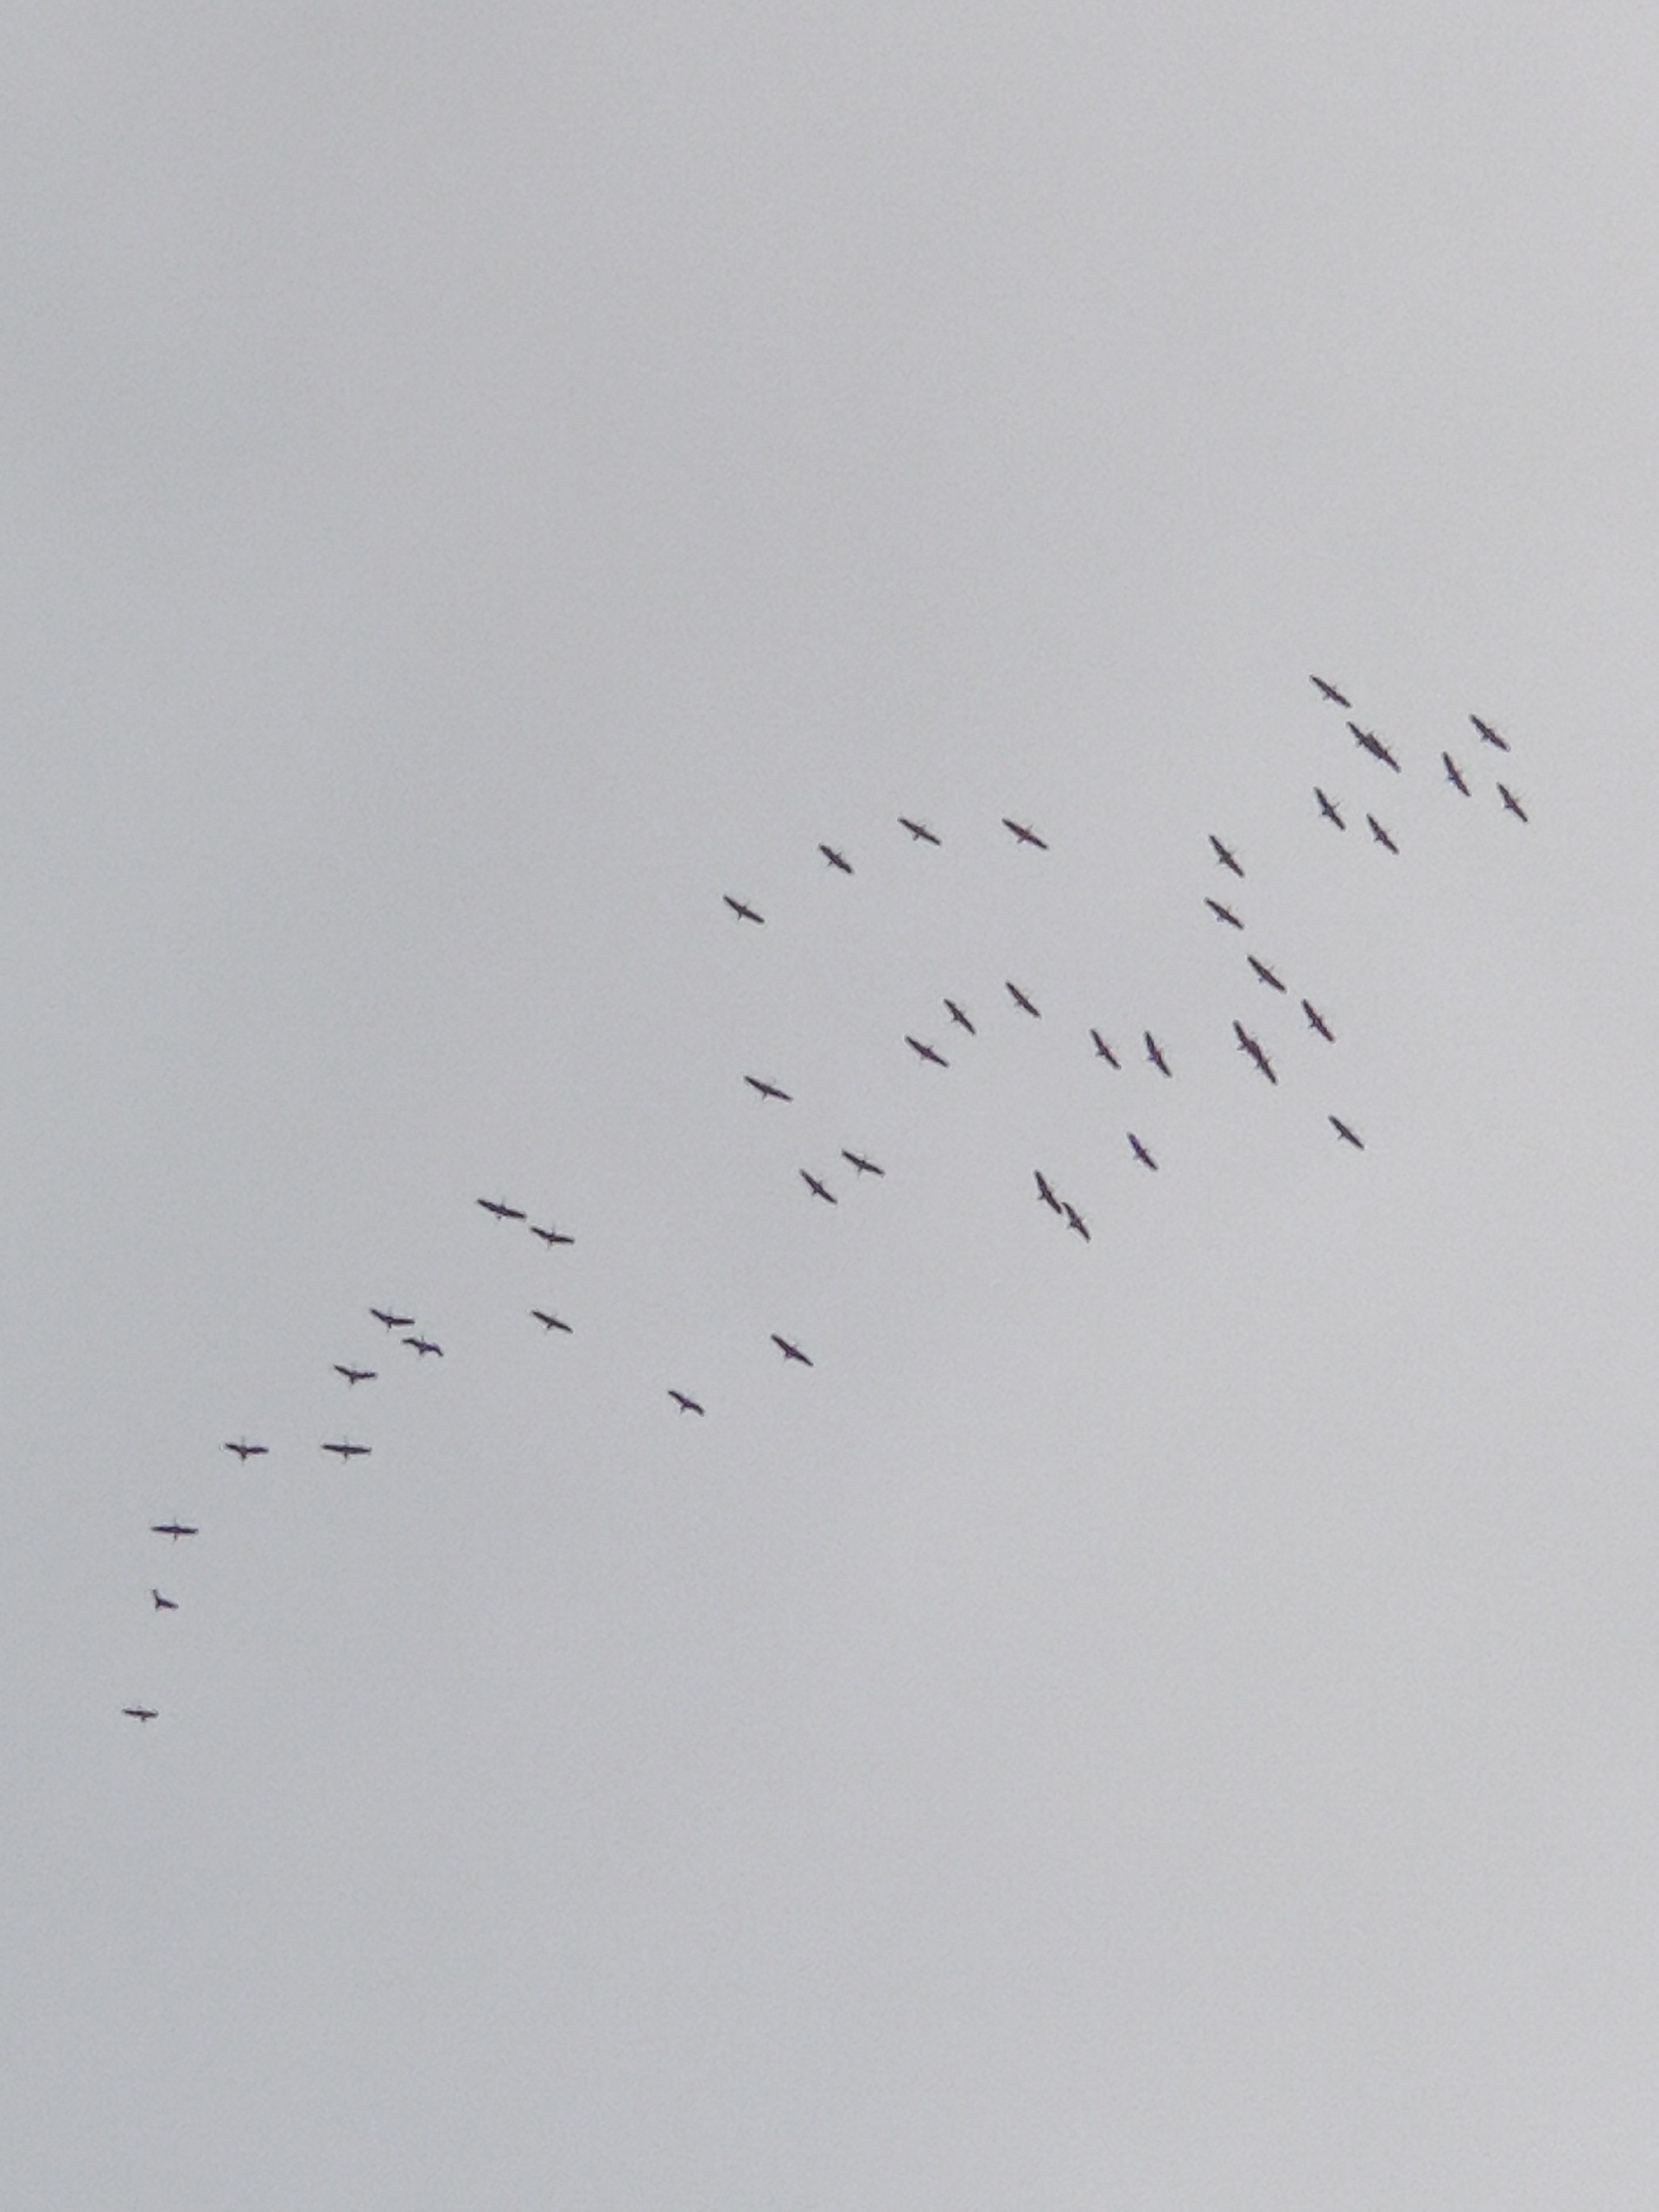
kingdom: Animalia
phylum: Chordata
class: Aves
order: Gruiformes
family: Gruidae
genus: Grus
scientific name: Grus grus
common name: Trane
